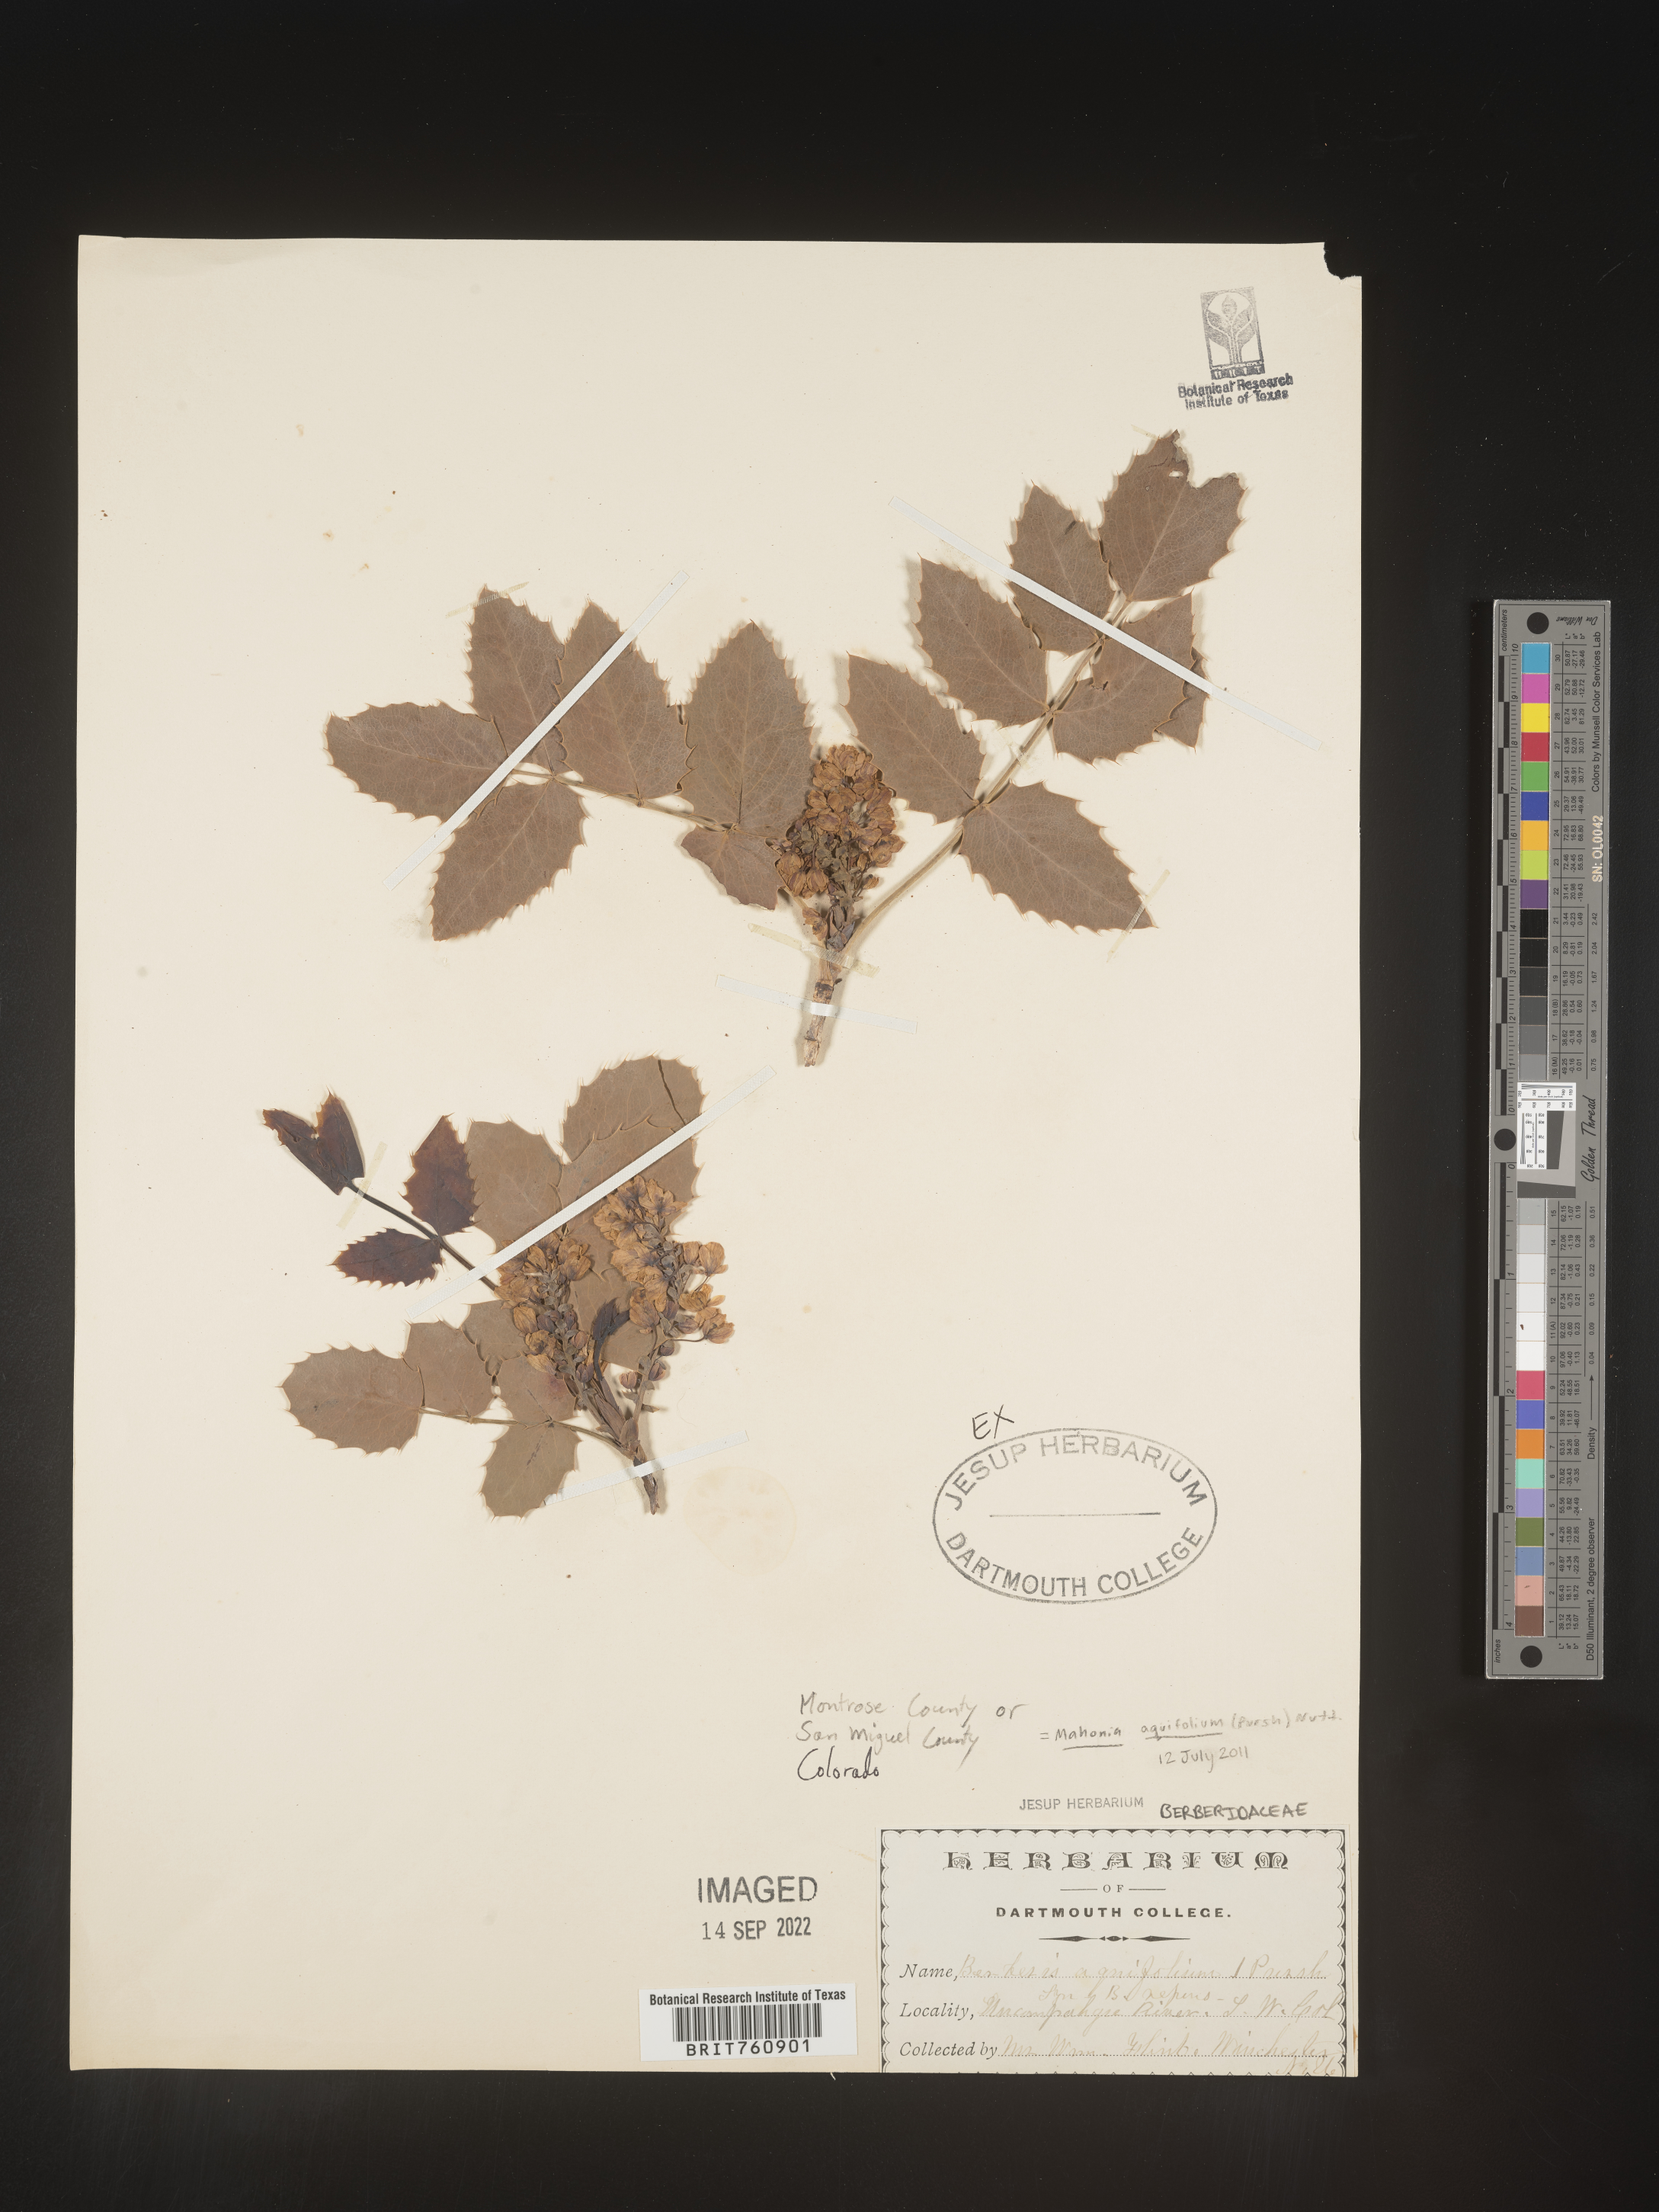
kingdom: Plantae
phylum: Tracheophyta
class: Magnoliopsida
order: Ranunculales
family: Berberidaceae
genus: Mahonia
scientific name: Mahonia aquifolium
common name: Oregon-grape
